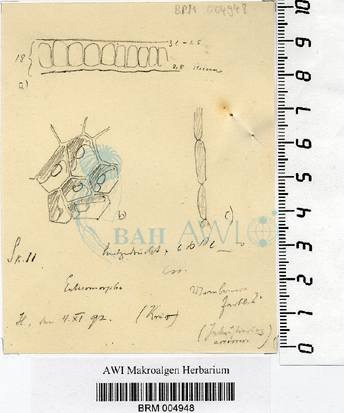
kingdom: Plantae
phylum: Chlorophyta
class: Ulvophyceae
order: Ulvales
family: Ulvaceae
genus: Ulva
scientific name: Ulva
